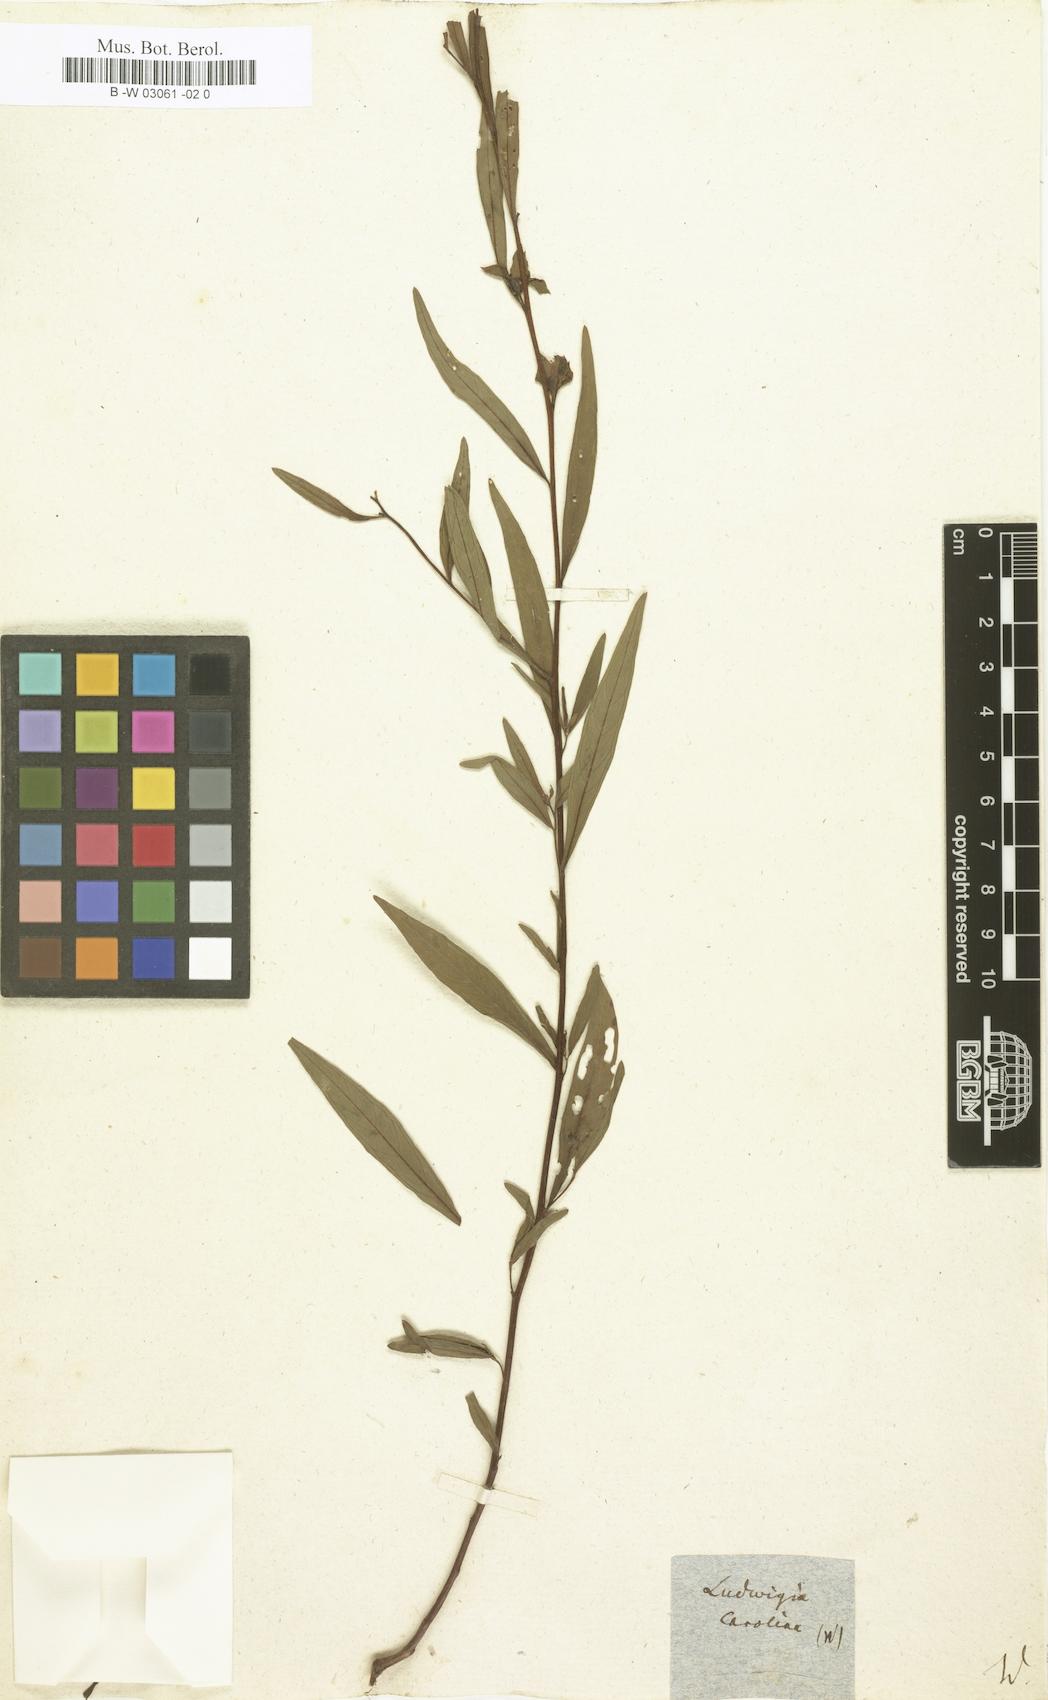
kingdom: Plantae
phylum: Tracheophyta
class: Magnoliopsida
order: Myrtales
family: Onagraceae
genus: Ludwigia
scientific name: Ludwigia decurrens
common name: Winged water-primrose
